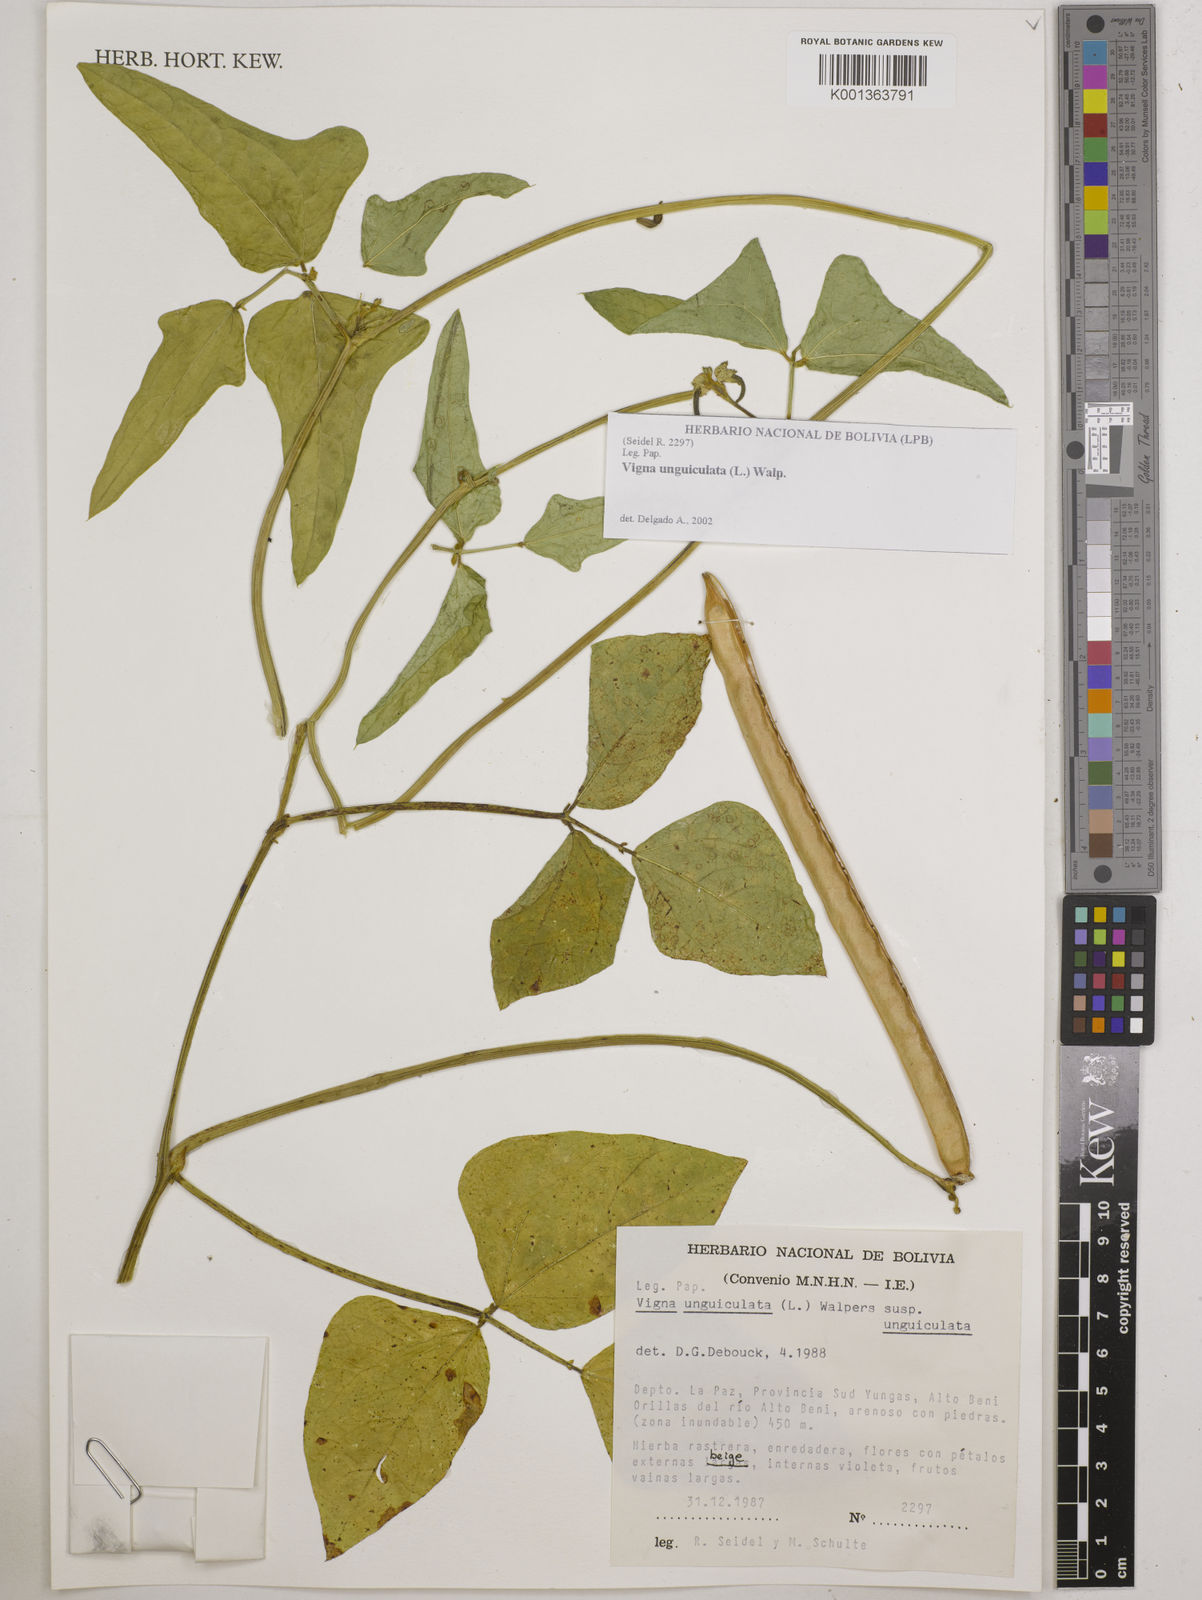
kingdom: Plantae
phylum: Tracheophyta
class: Magnoliopsida
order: Fabales
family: Fabaceae
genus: Vigna
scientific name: Vigna unguiculata
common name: Cowpea
